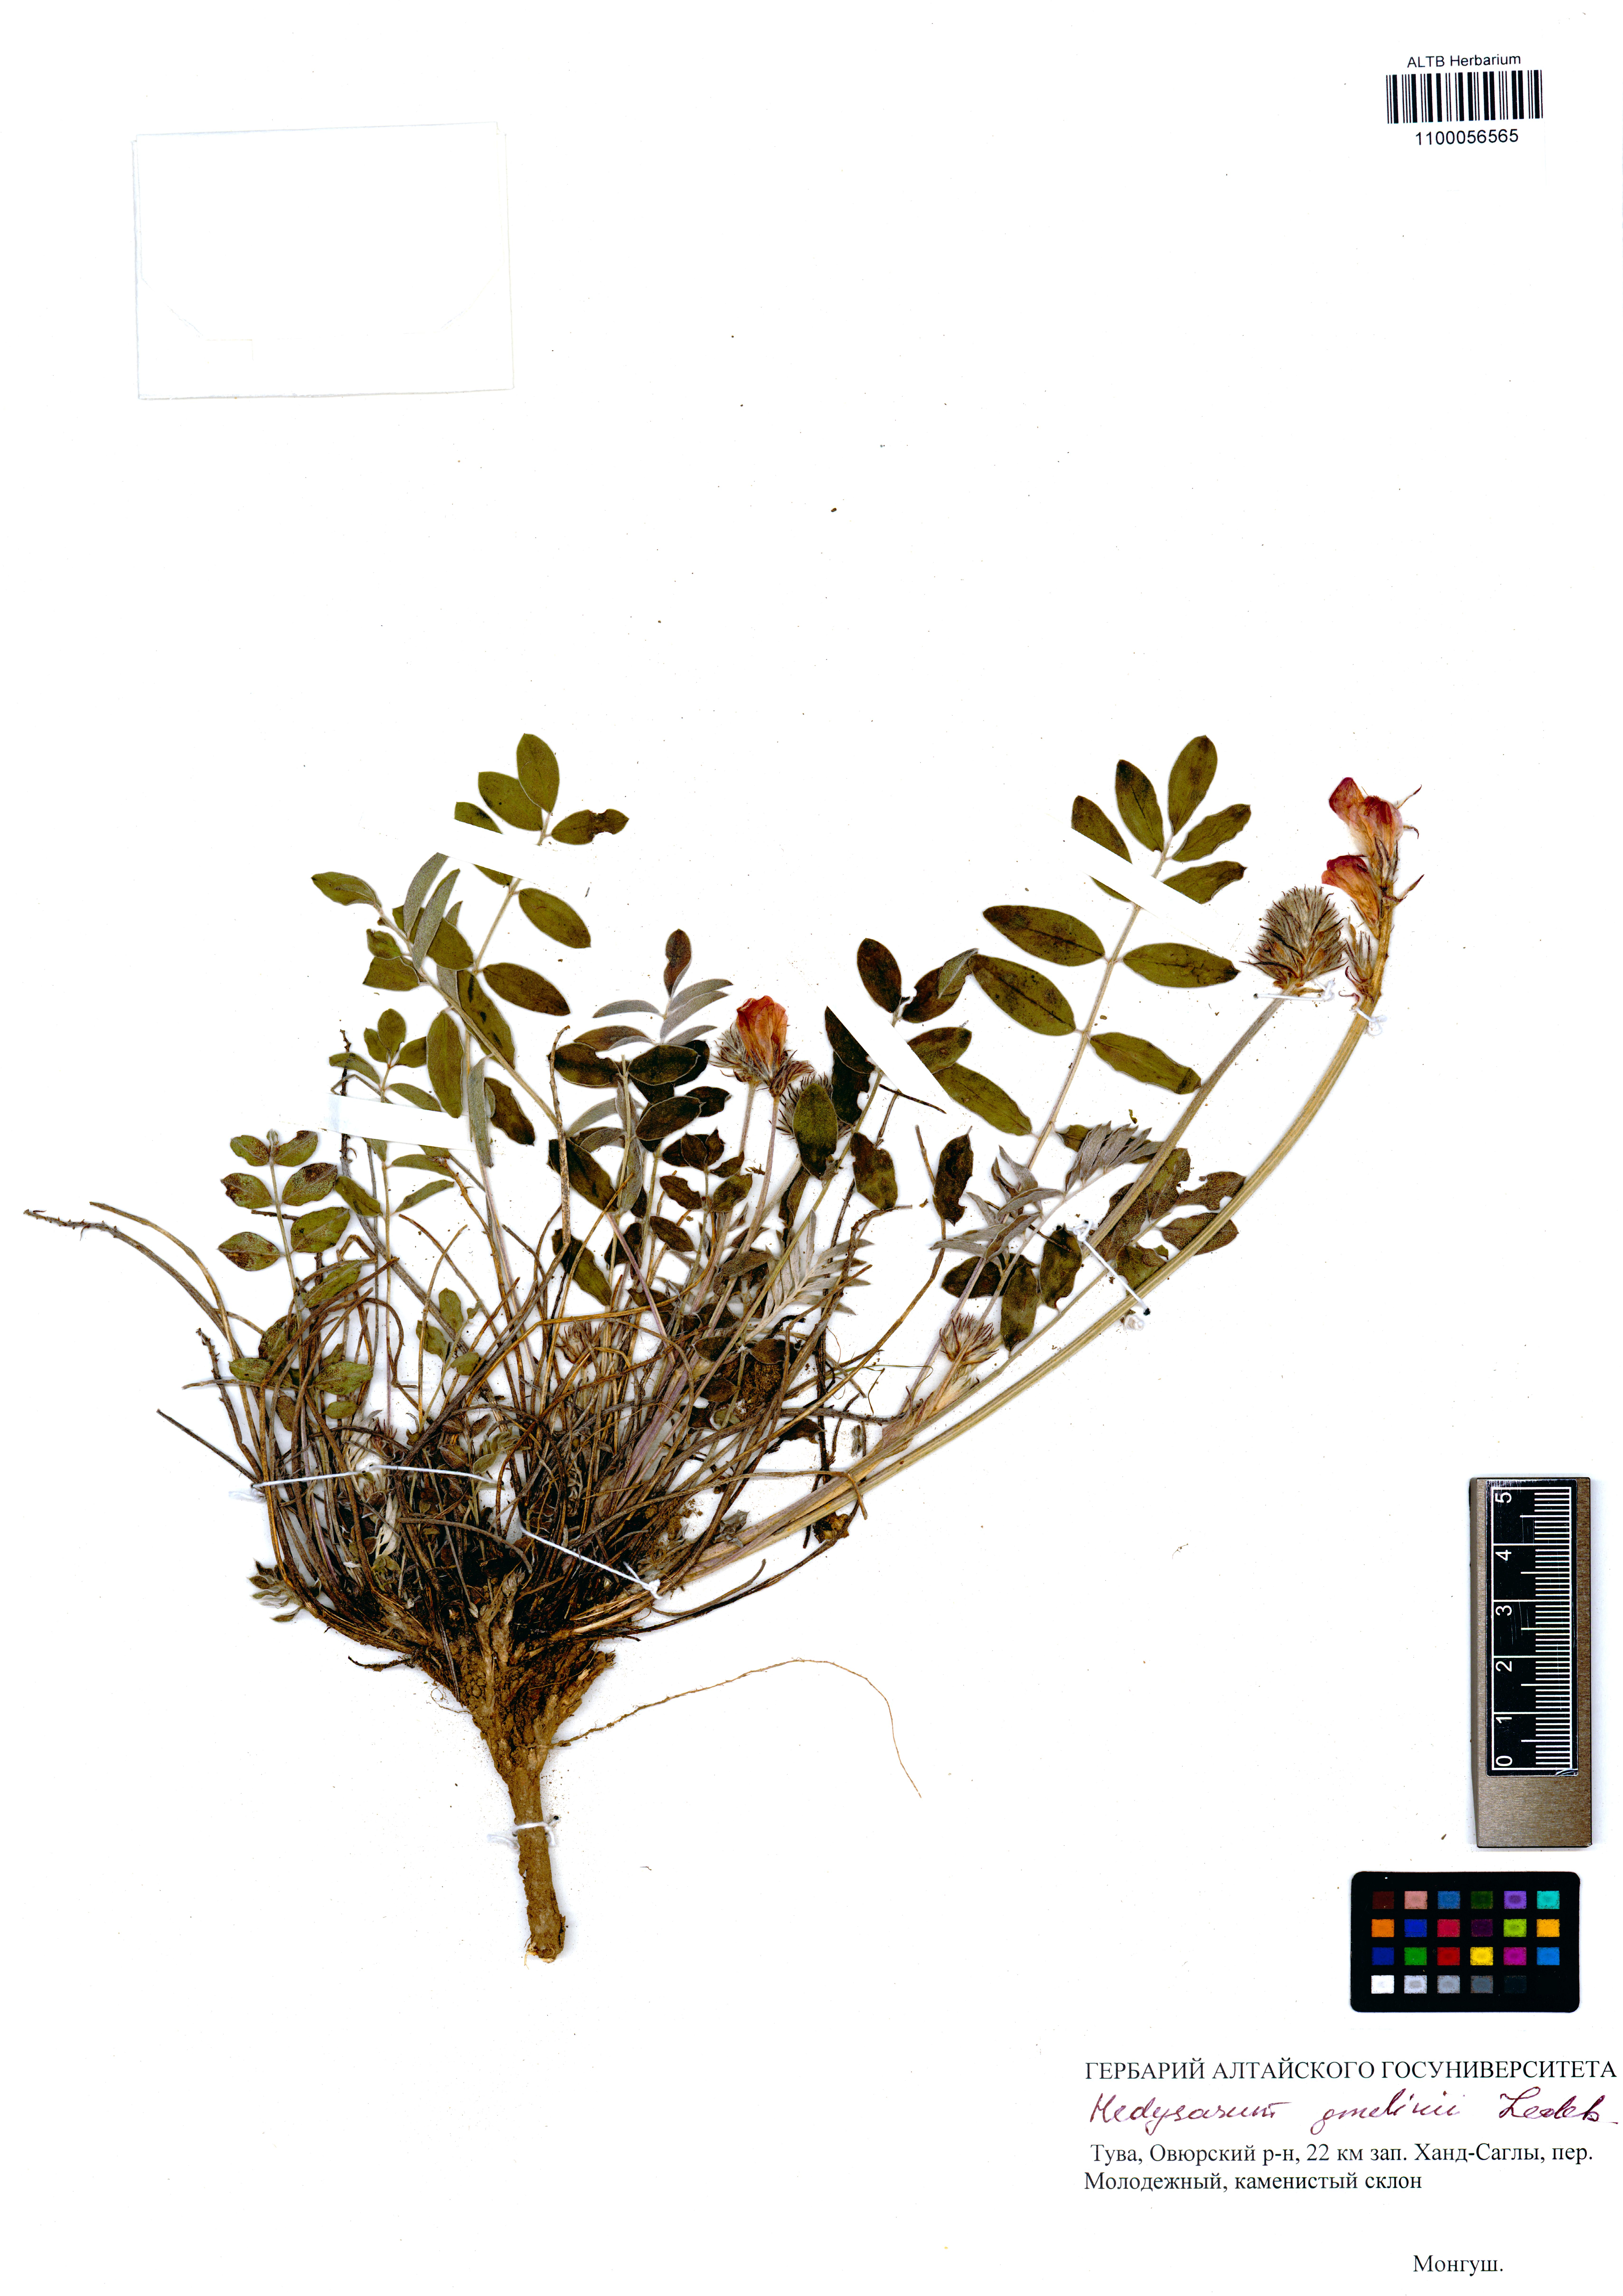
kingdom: Plantae
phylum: Tracheophyta
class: Magnoliopsida
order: Fabales
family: Fabaceae
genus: Hedysarum
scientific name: Hedysarum gmelinii
